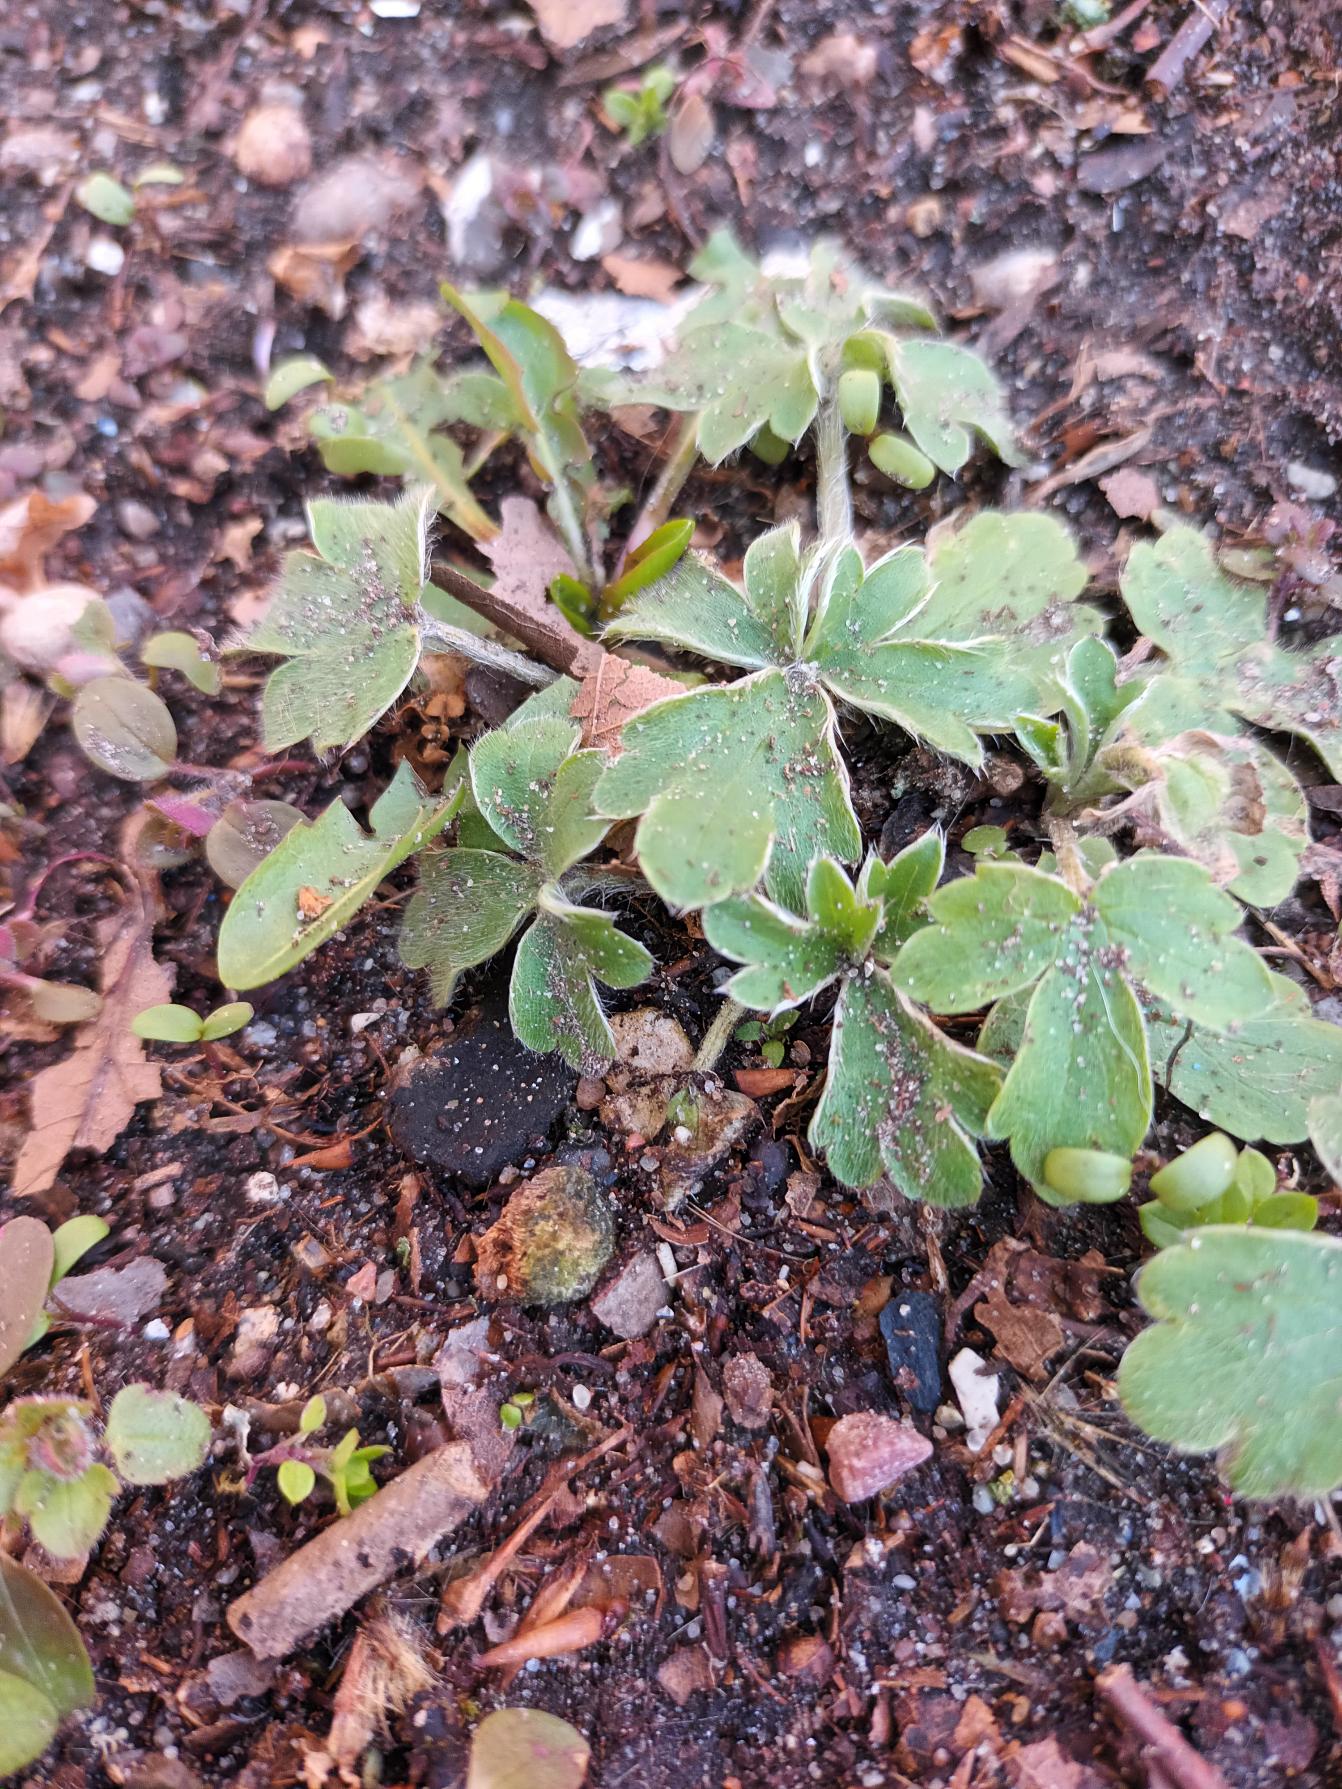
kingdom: Plantae
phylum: Tracheophyta
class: Magnoliopsida
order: Ranunculales
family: Ranunculaceae
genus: Ranunculus
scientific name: Ranunculus psilostachys
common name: Balkan-ranunkel
